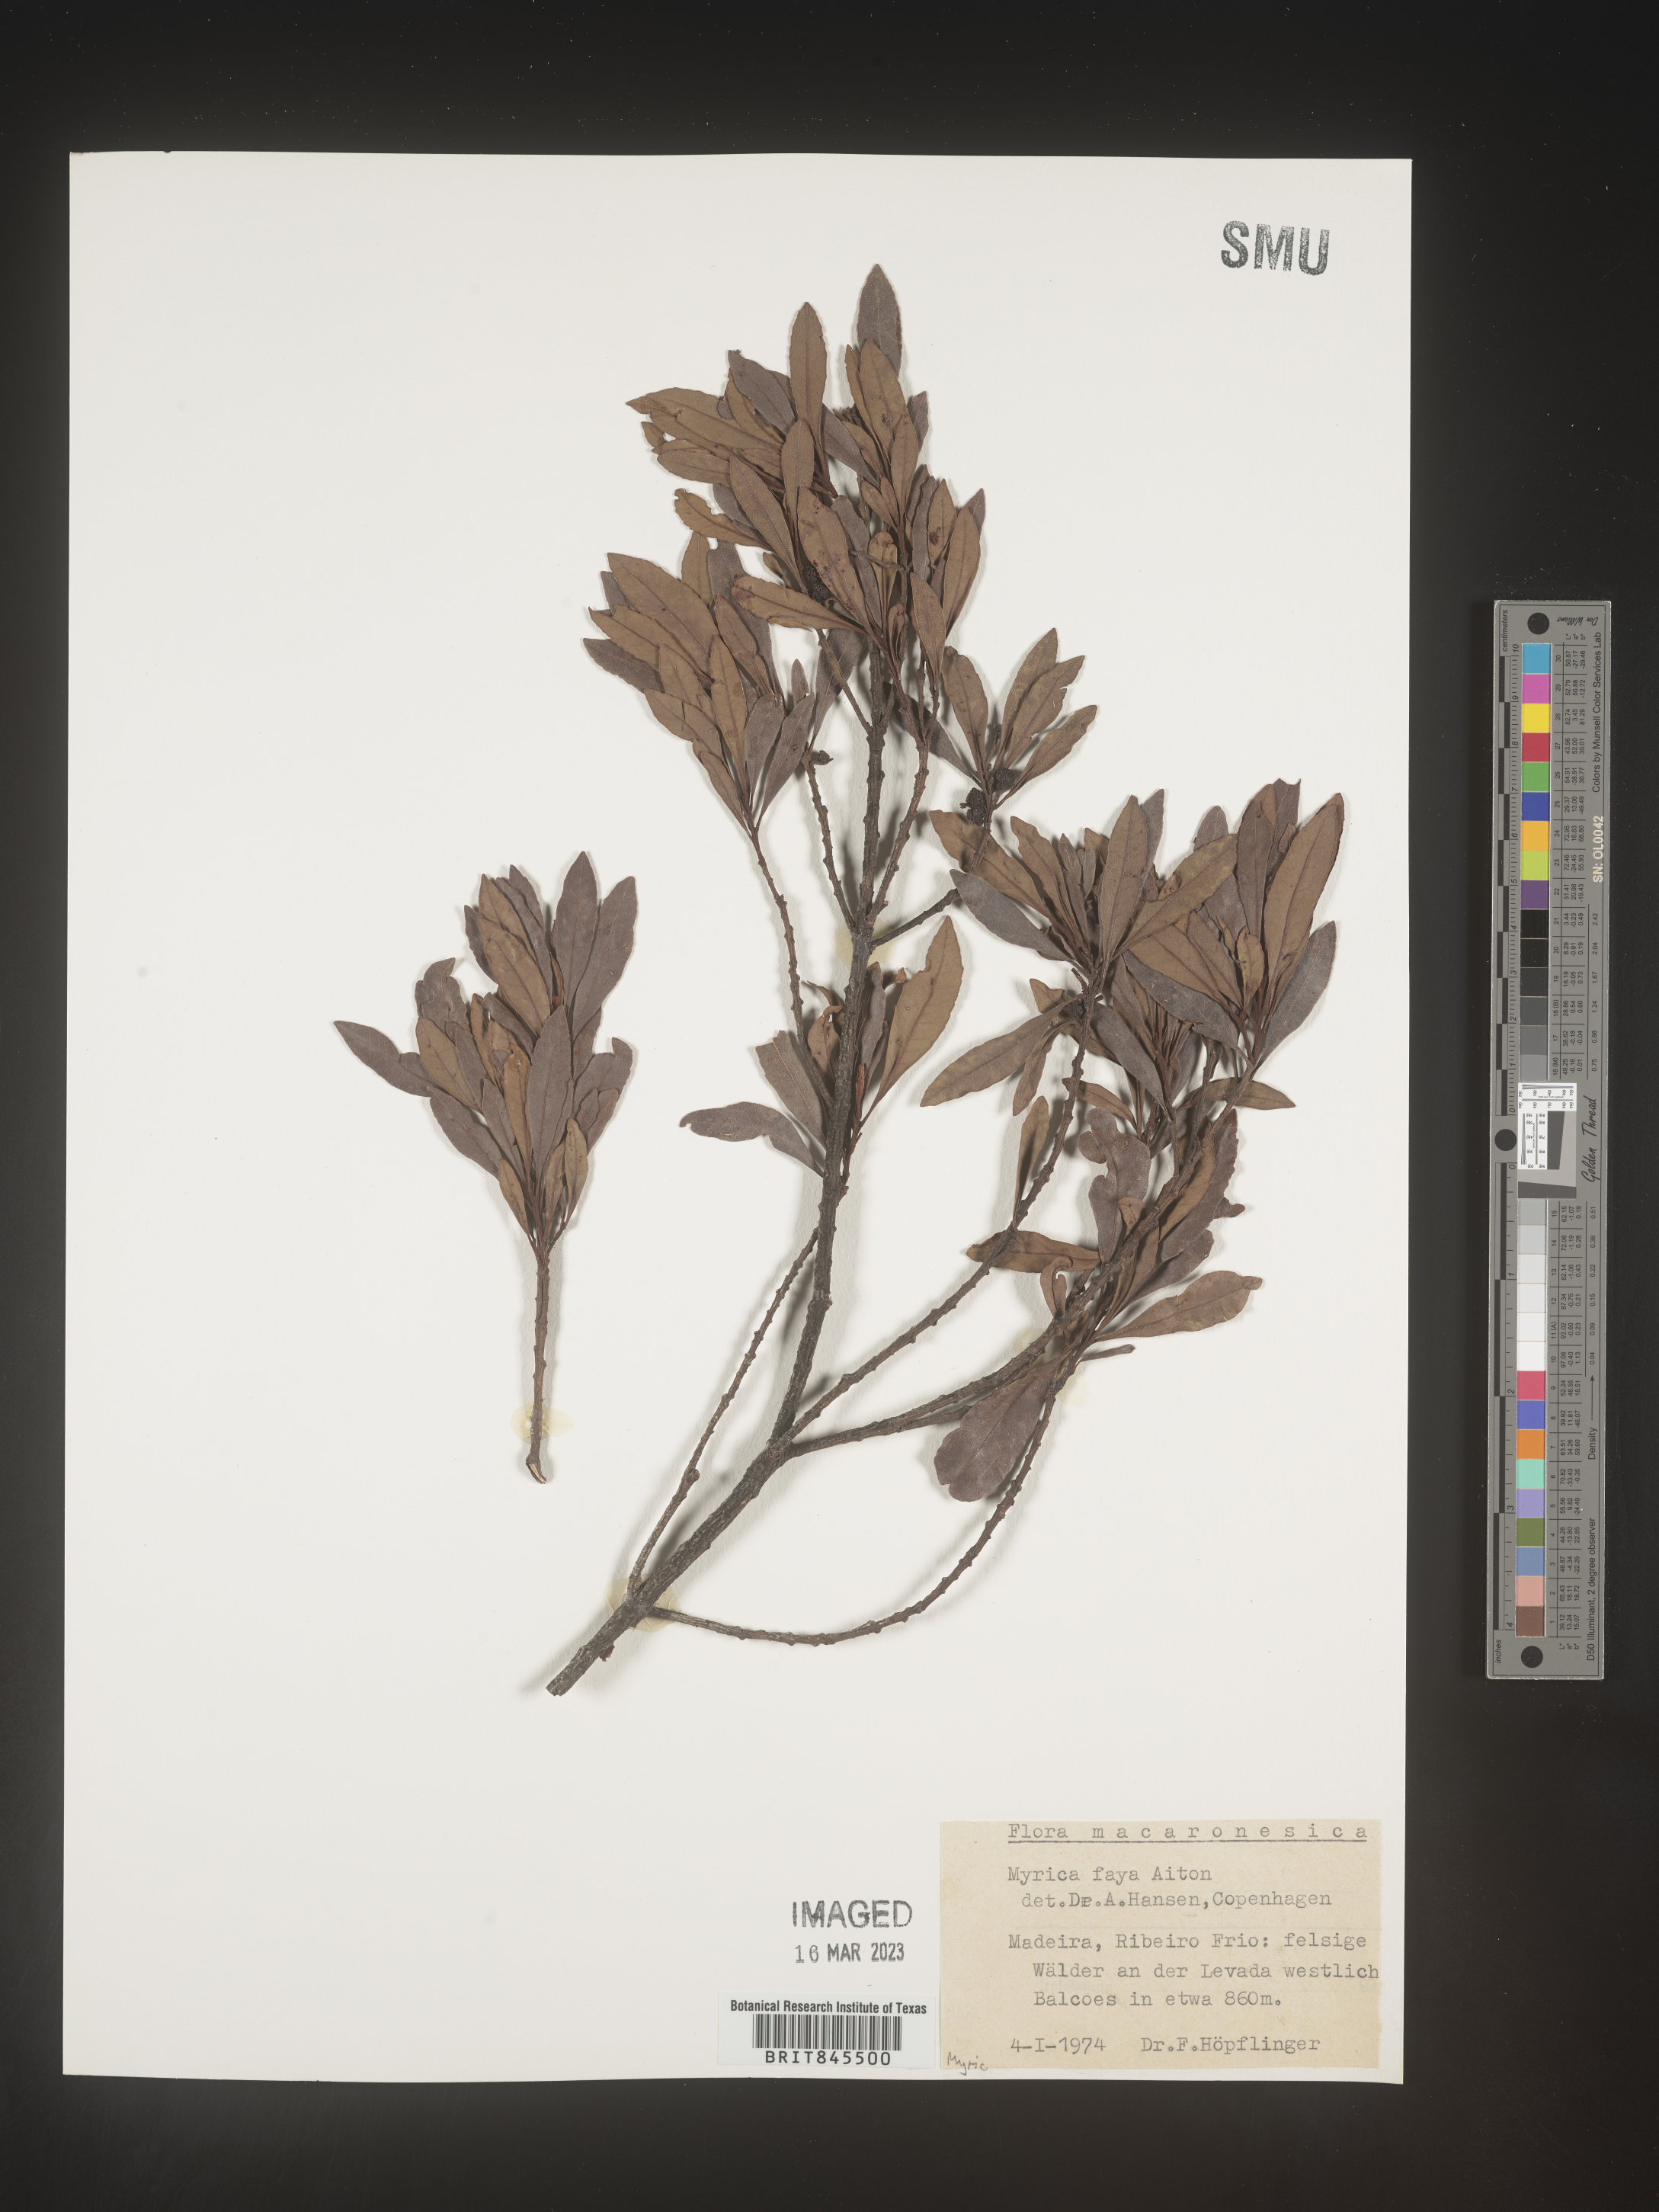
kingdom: Plantae
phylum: Tracheophyta
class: Magnoliopsida
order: Fagales
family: Myricaceae
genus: Myrica
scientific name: Myrica
